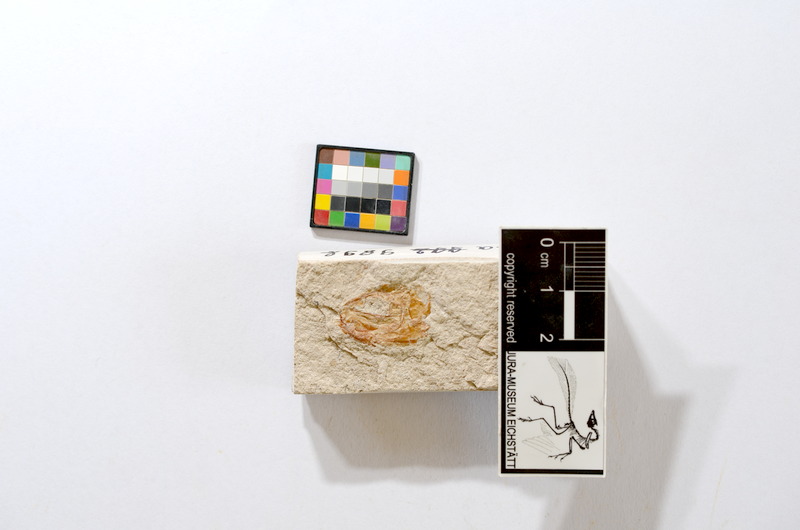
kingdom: Animalia
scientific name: Animalia
